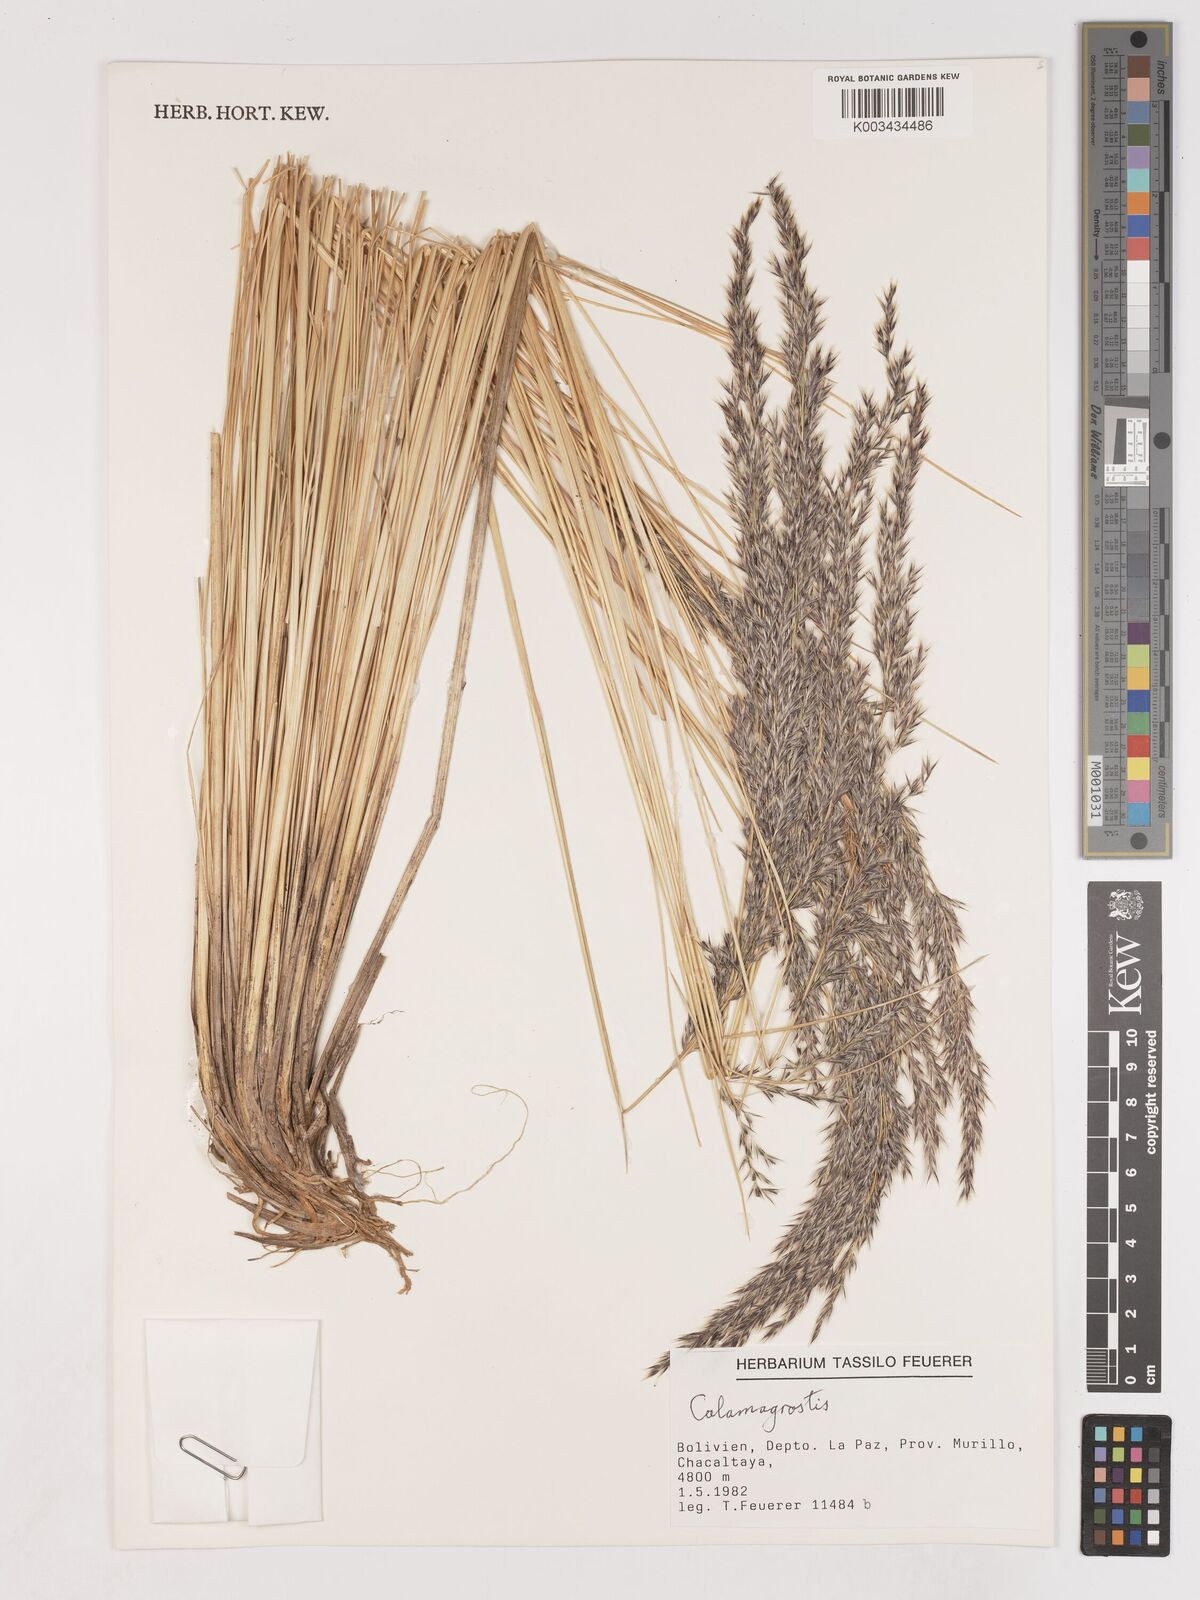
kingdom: Plantae
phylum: Tracheophyta
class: Liliopsida
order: Poales
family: Poaceae
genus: Cinnagrostis
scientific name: Cinnagrostis rigida
